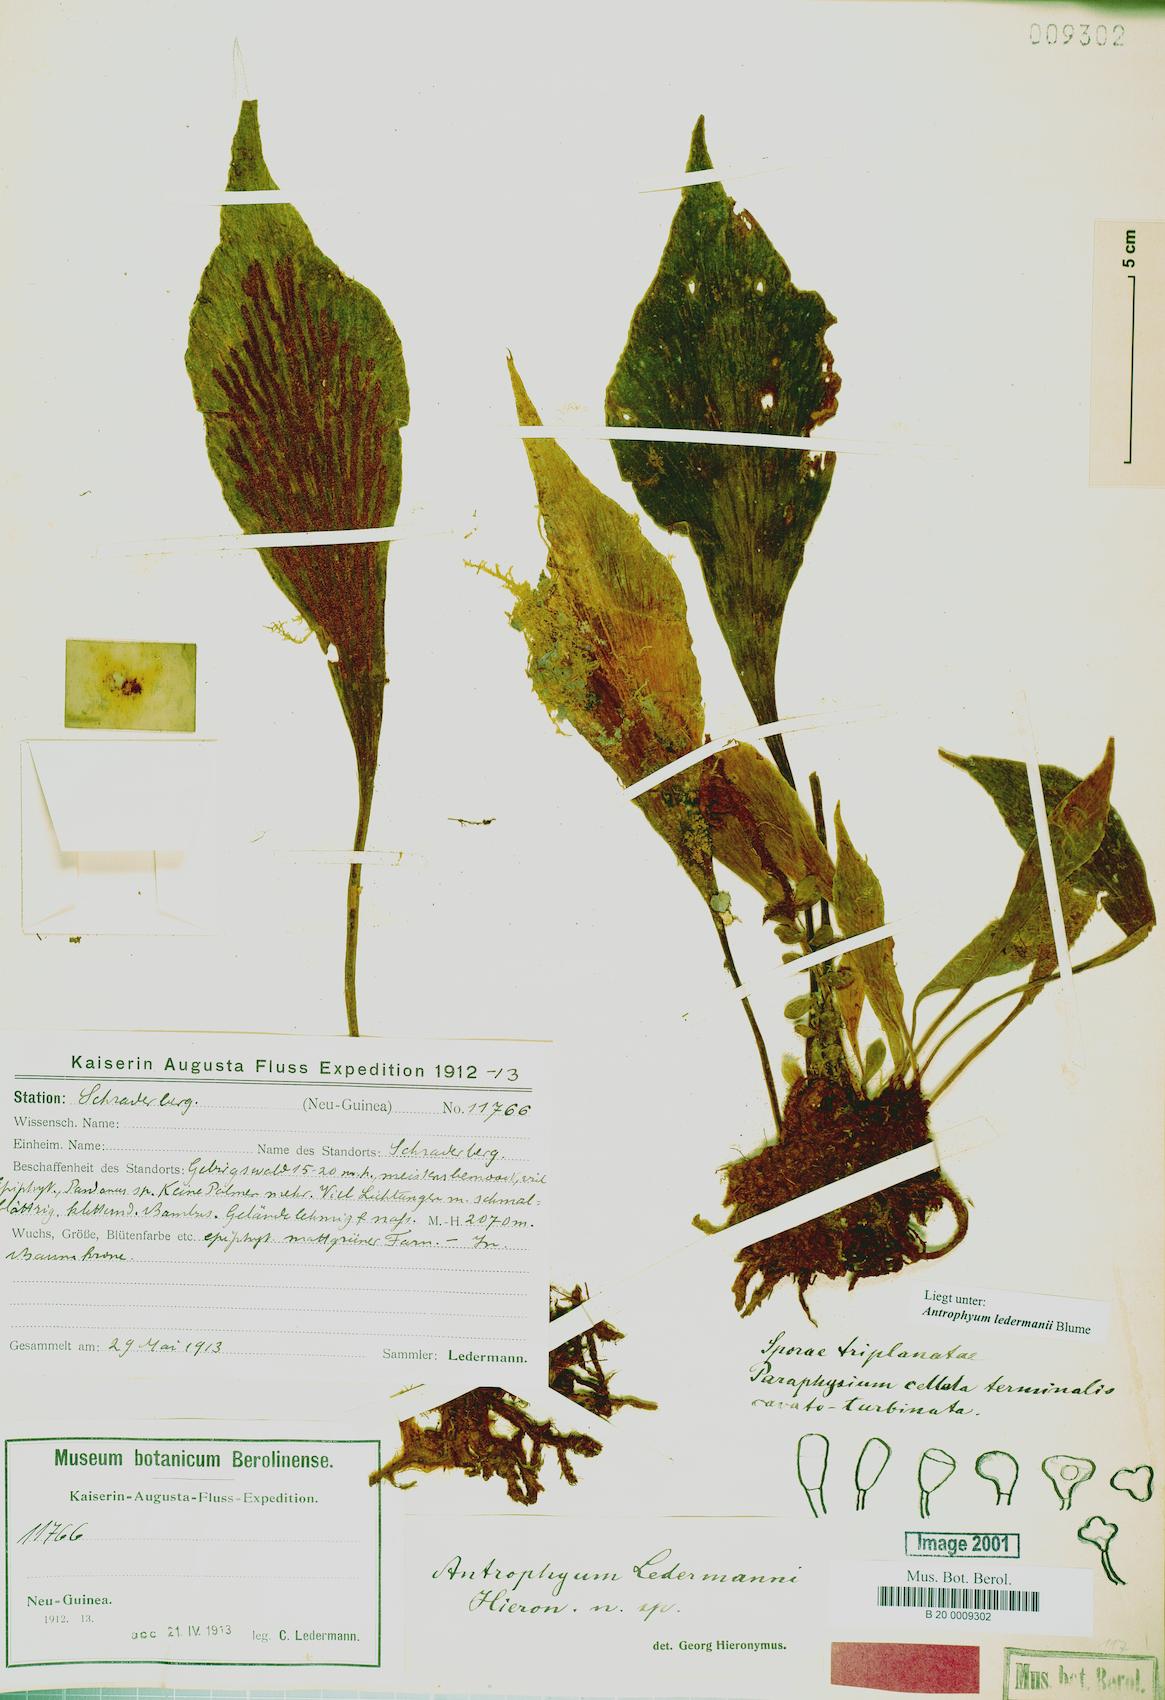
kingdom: Plantae
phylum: Tracheophyta
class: Polypodiopsida
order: Polypodiales
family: Pteridaceae
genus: Antrophyum
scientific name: Antrophyum ledermannii
